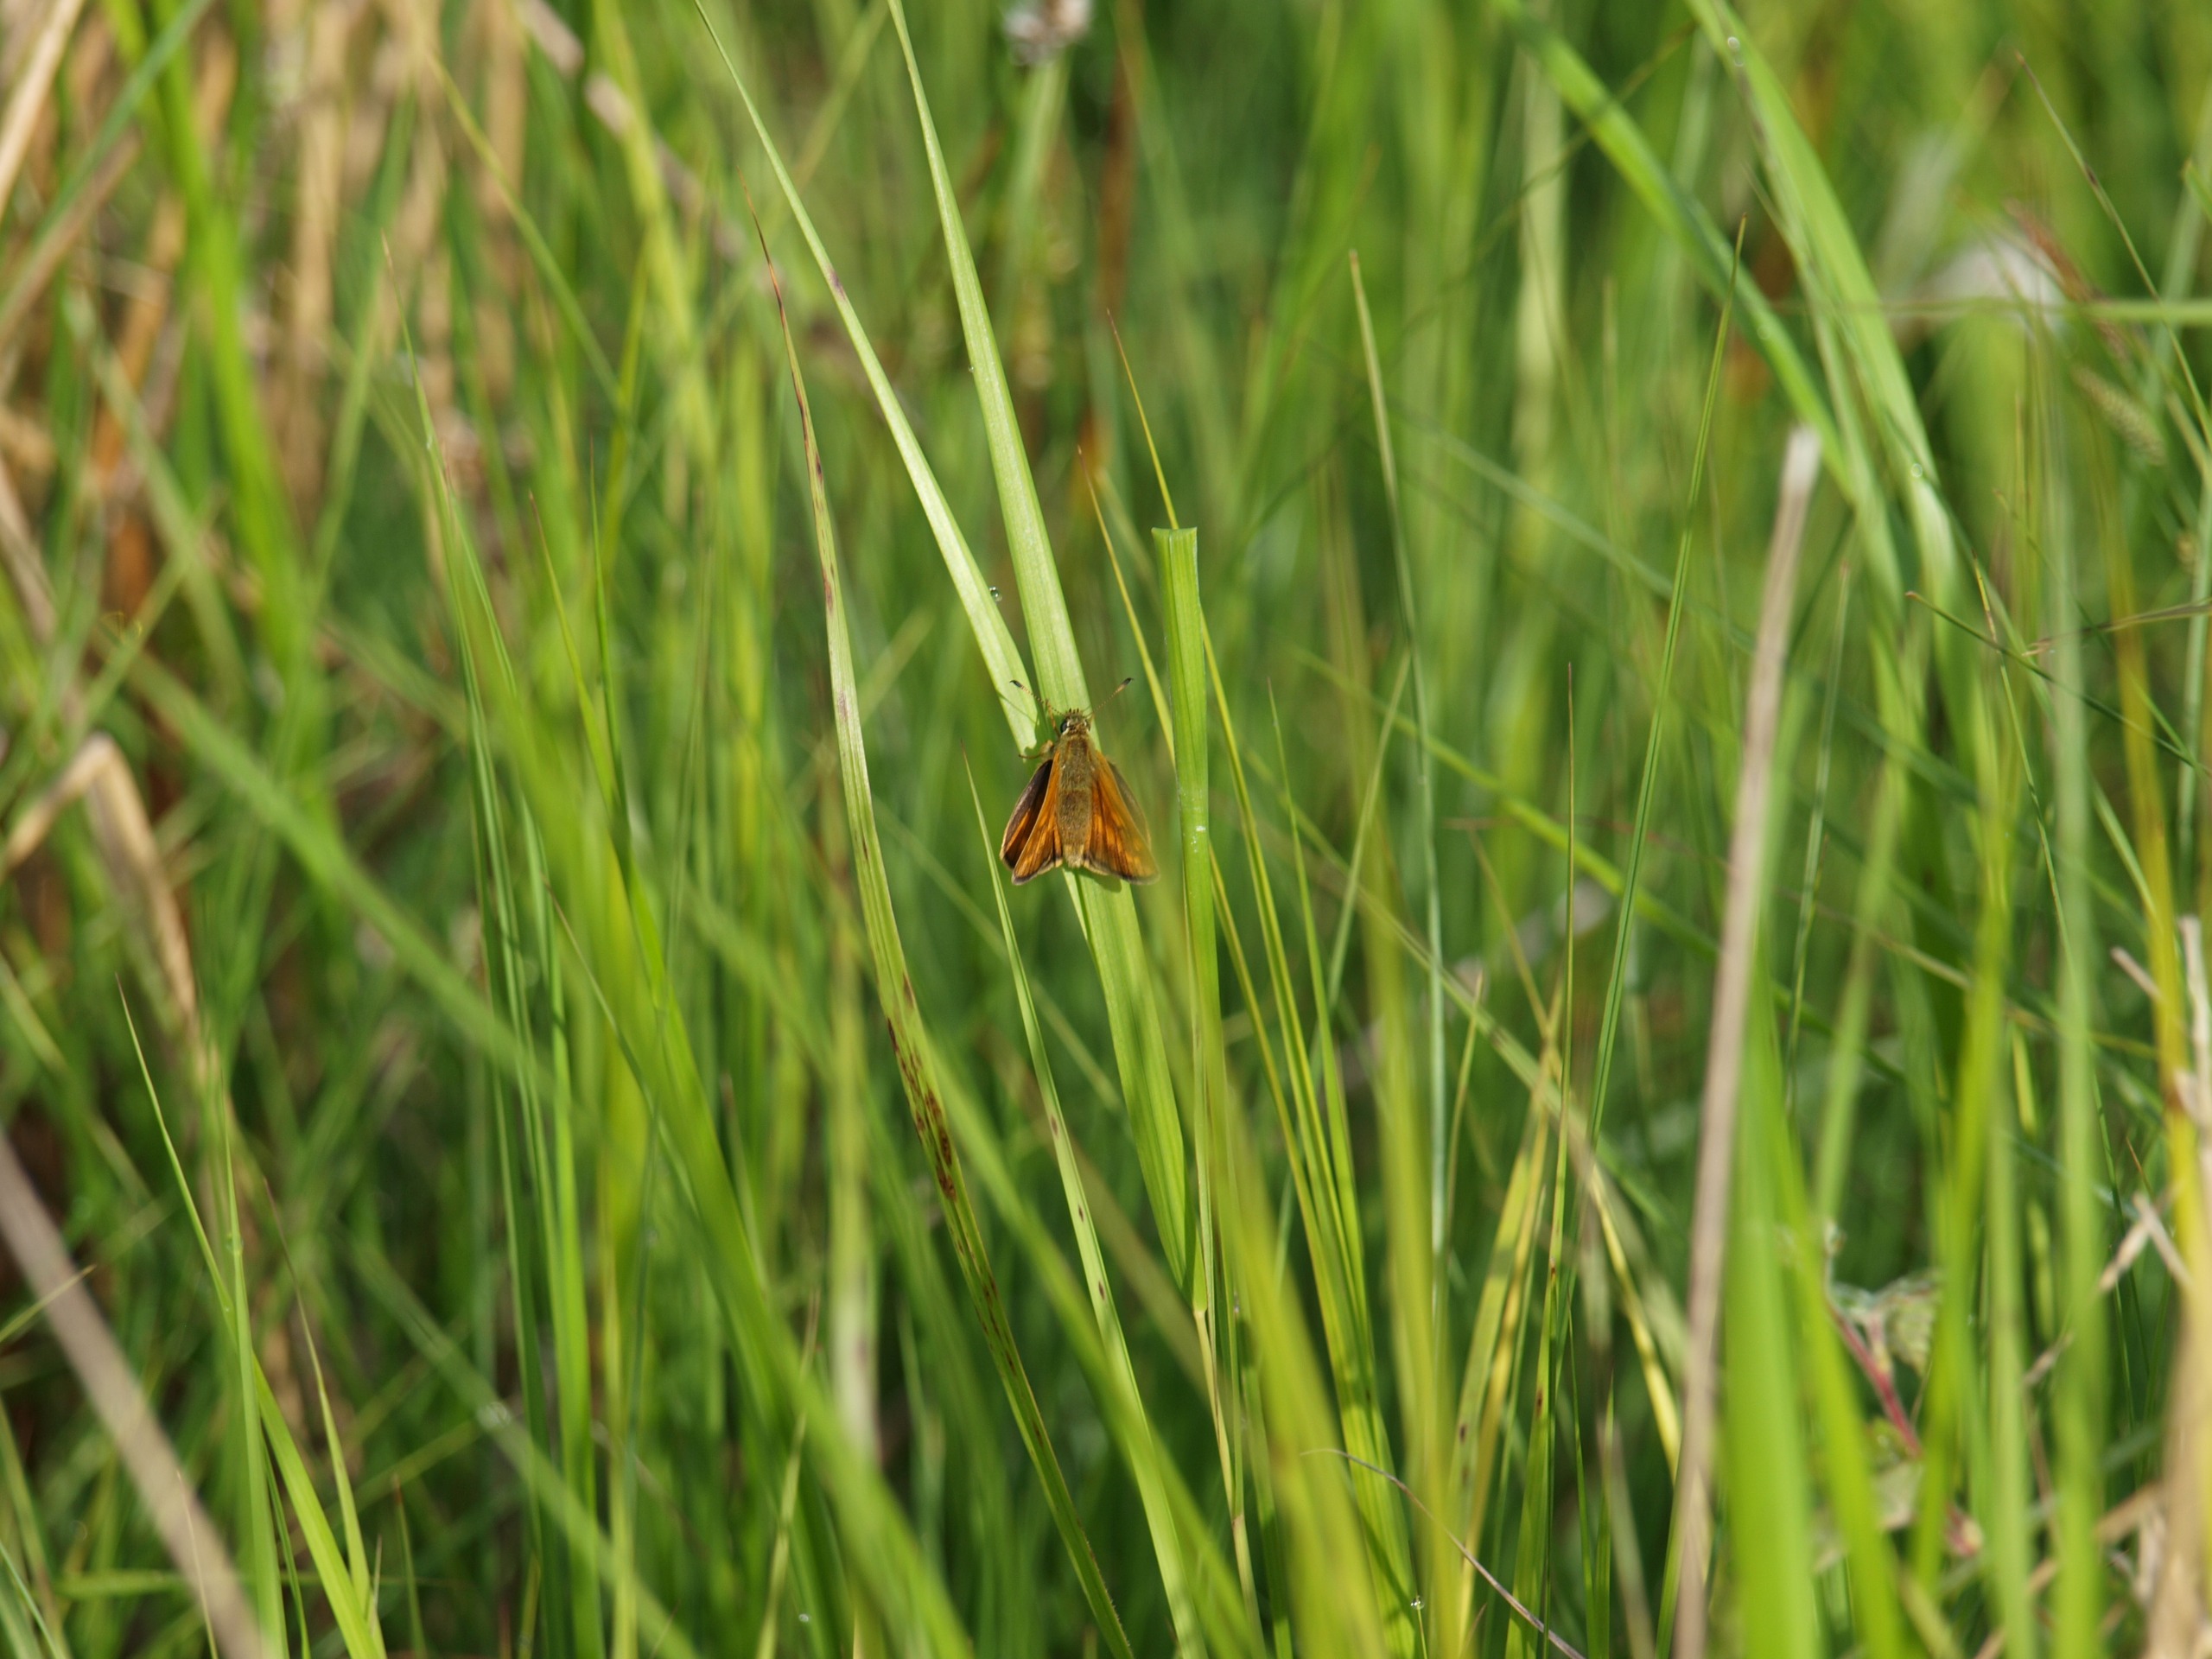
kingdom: Animalia
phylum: Arthropoda
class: Insecta
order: Lepidoptera
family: Hesperiidae
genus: Ochlodes
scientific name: Ochlodes venata
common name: Stor bredpande
